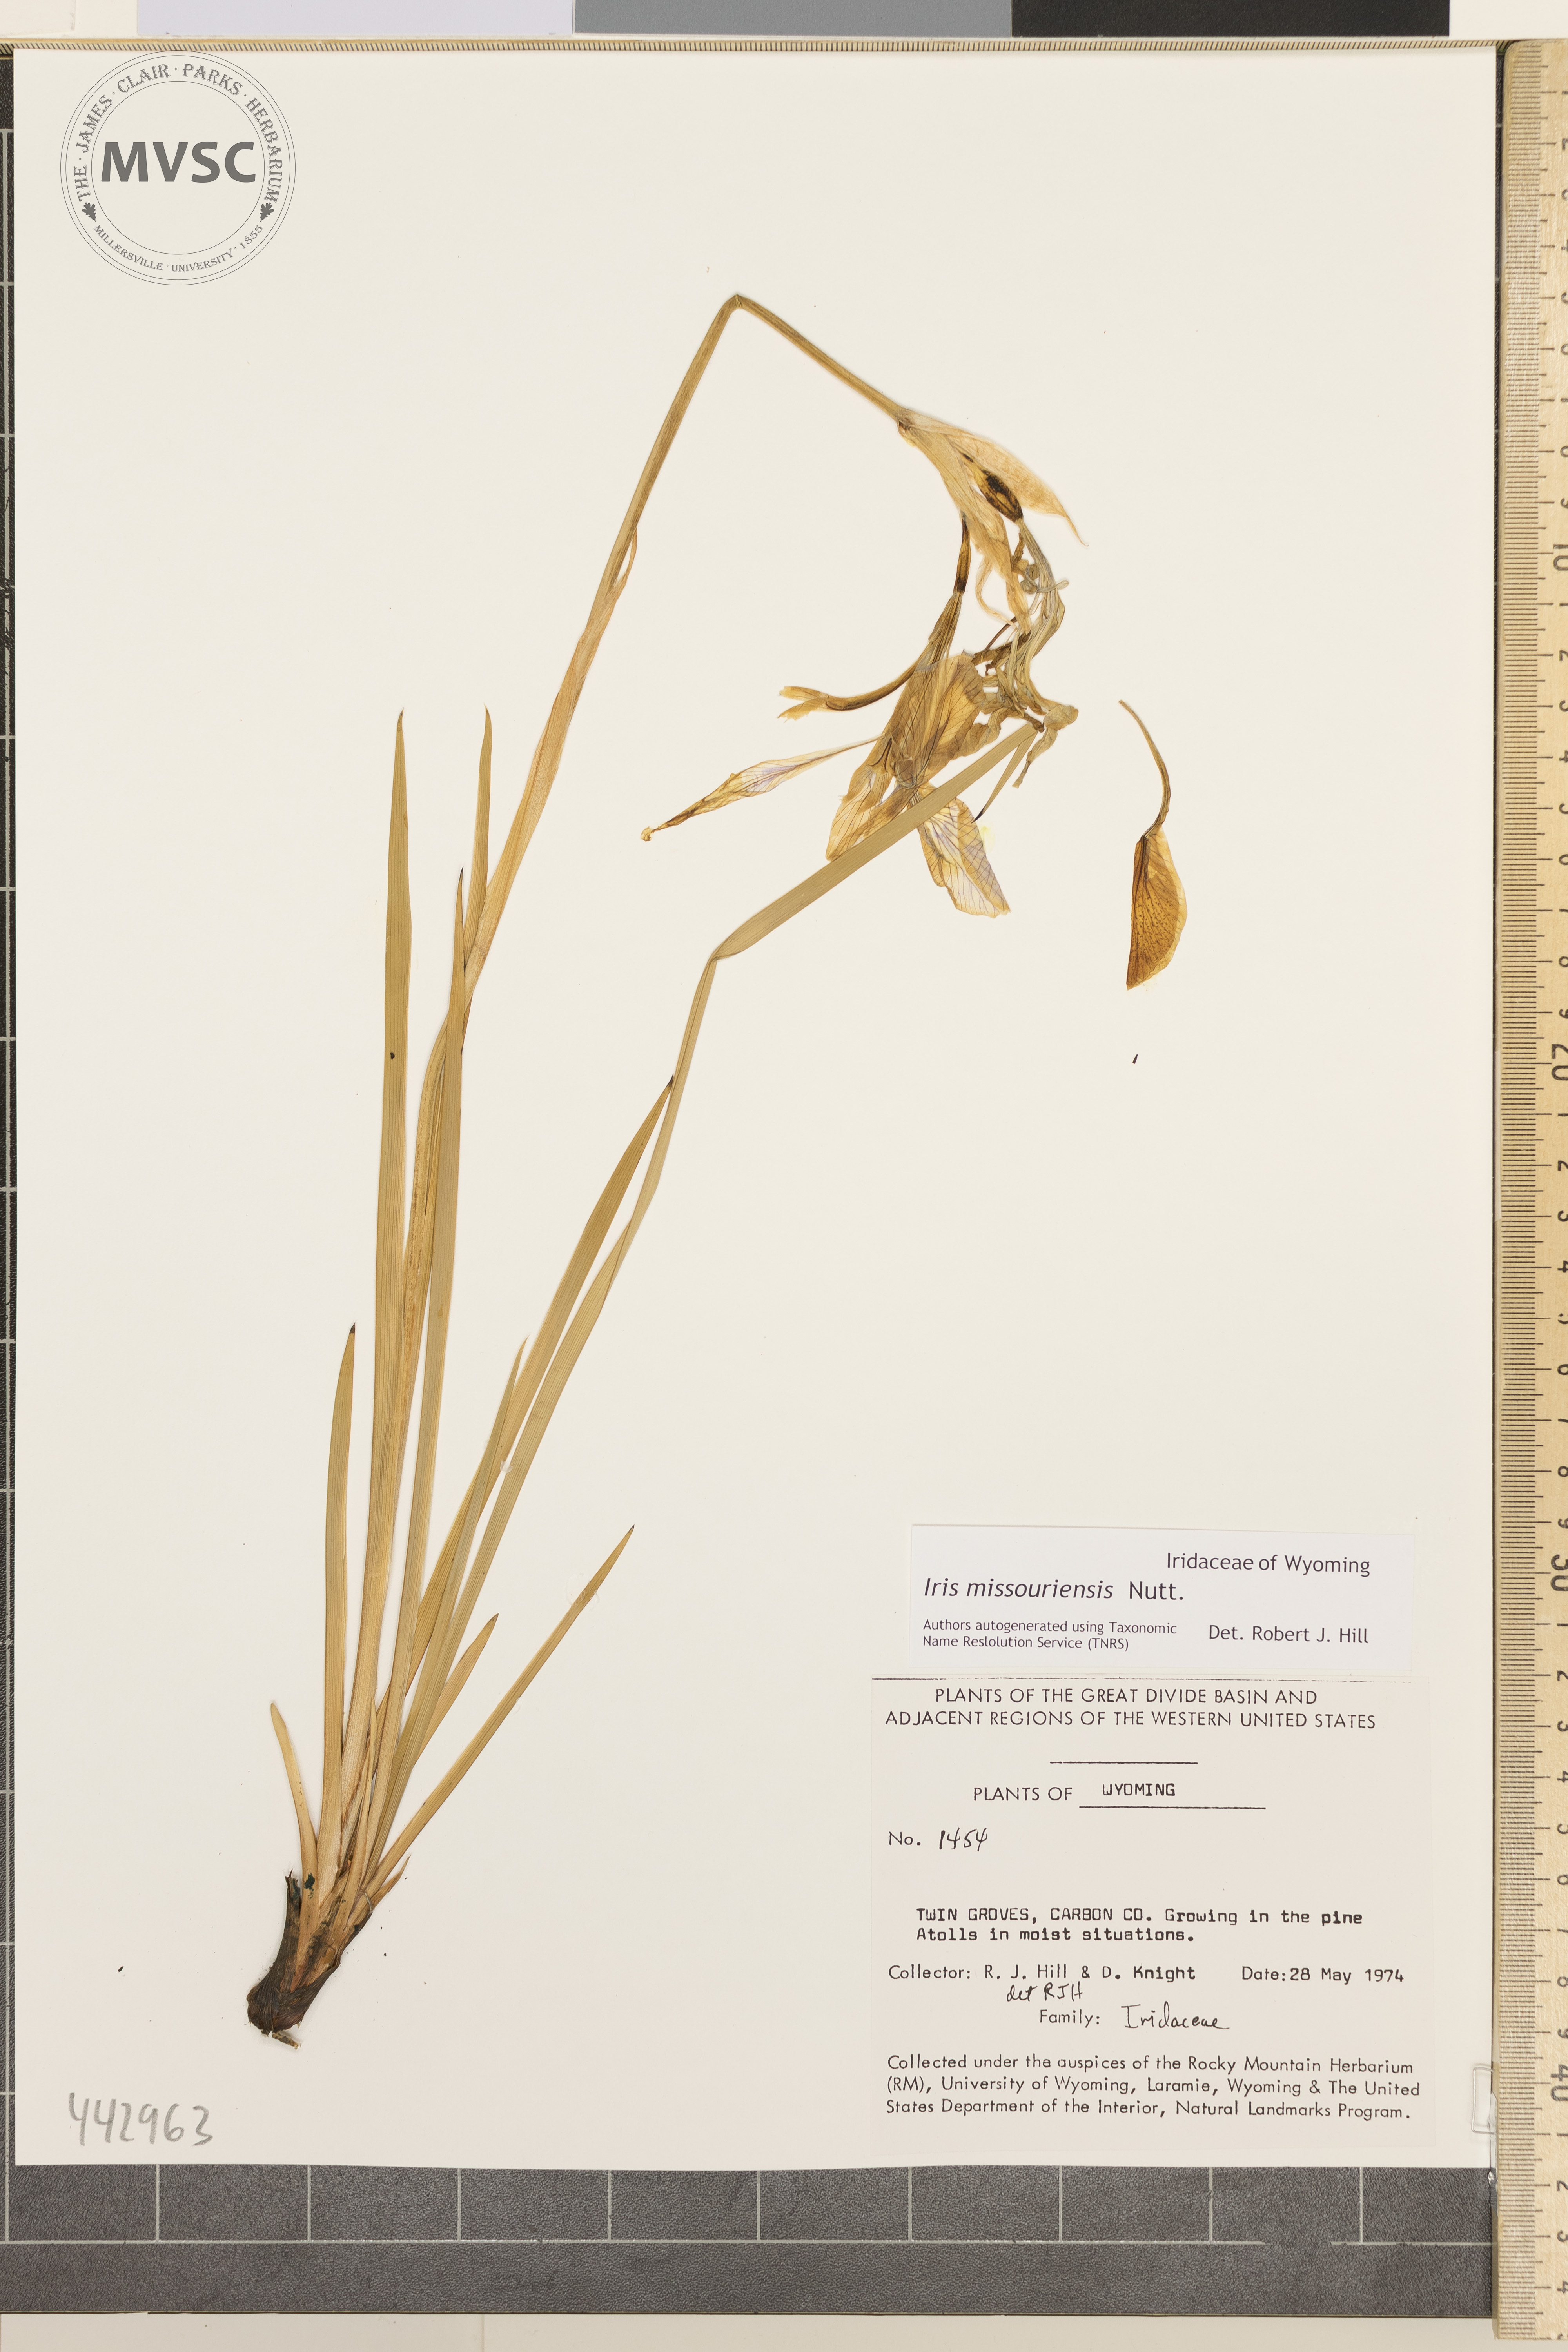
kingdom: Plantae
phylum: Tracheophyta
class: Liliopsida
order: Asparagales
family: Iridaceae
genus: Iris
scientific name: Iris missouriensis
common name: Rocky mountain iris
